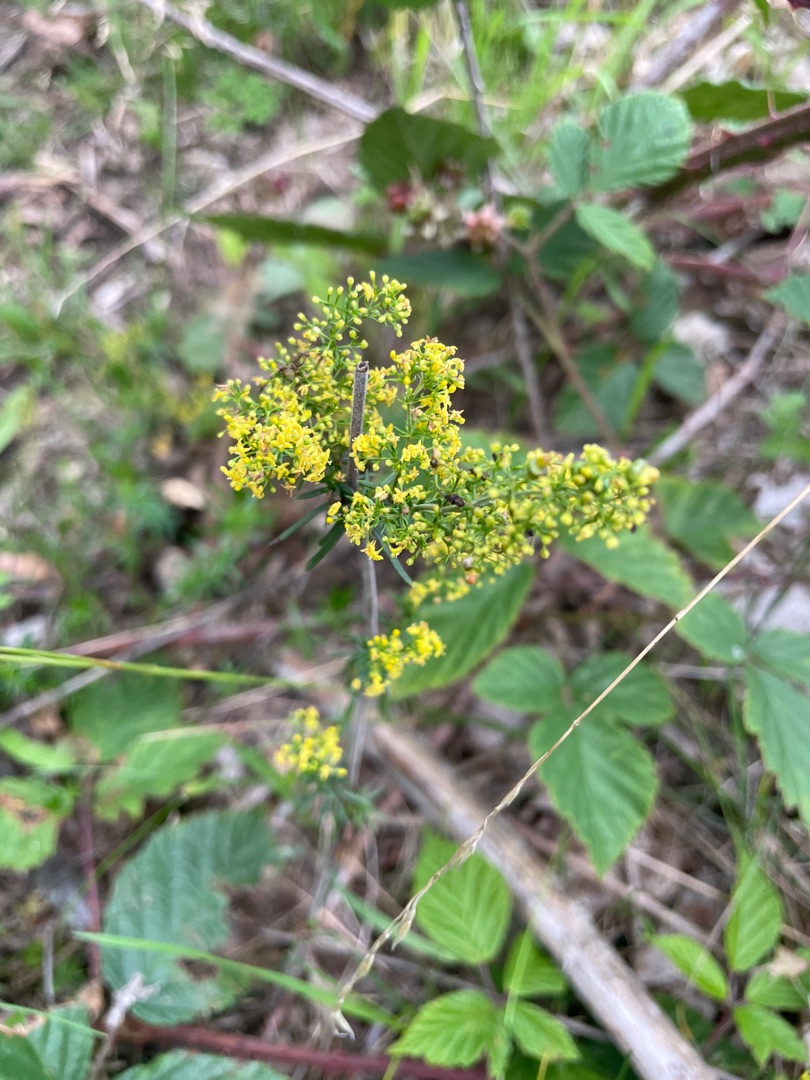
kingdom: Plantae
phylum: Tracheophyta
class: Magnoliopsida
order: Gentianales
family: Rubiaceae
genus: Galium
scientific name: Galium verum
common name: Gul snerre
